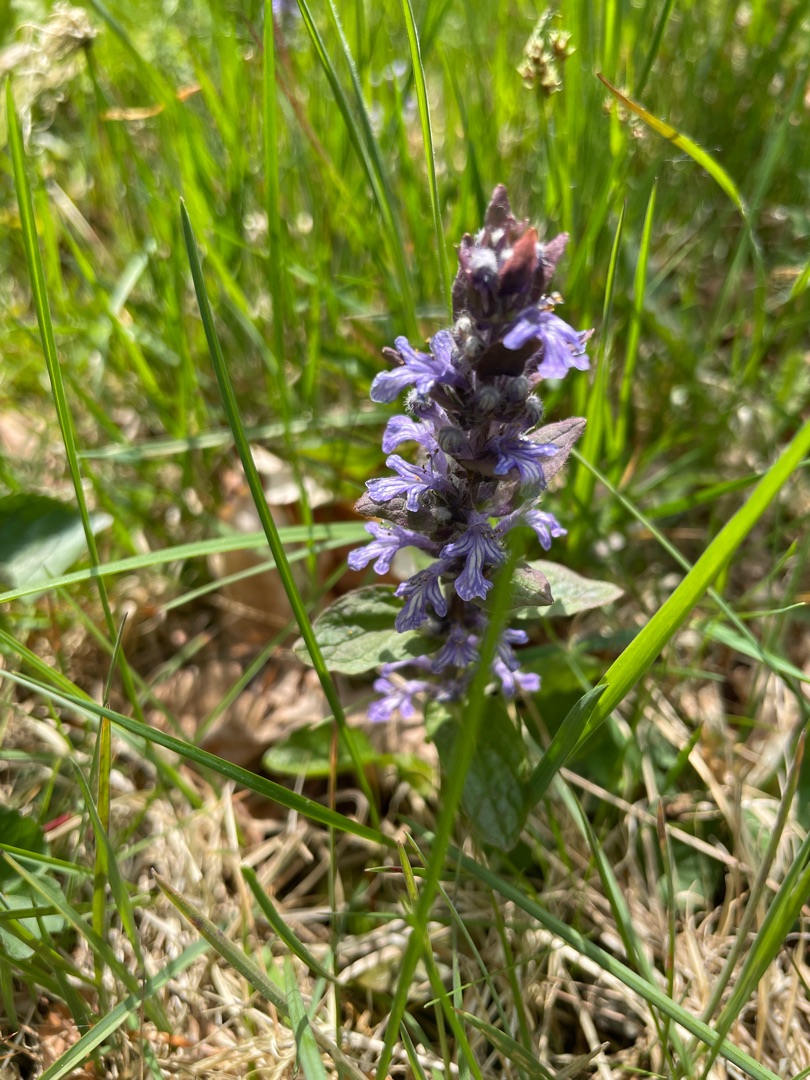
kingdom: Plantae
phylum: Tracheophyta
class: Magnoliopsida
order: Lamiales
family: Lamiaceae
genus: Ajuga
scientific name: Ajuga reptans
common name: Krybende læbeløs
